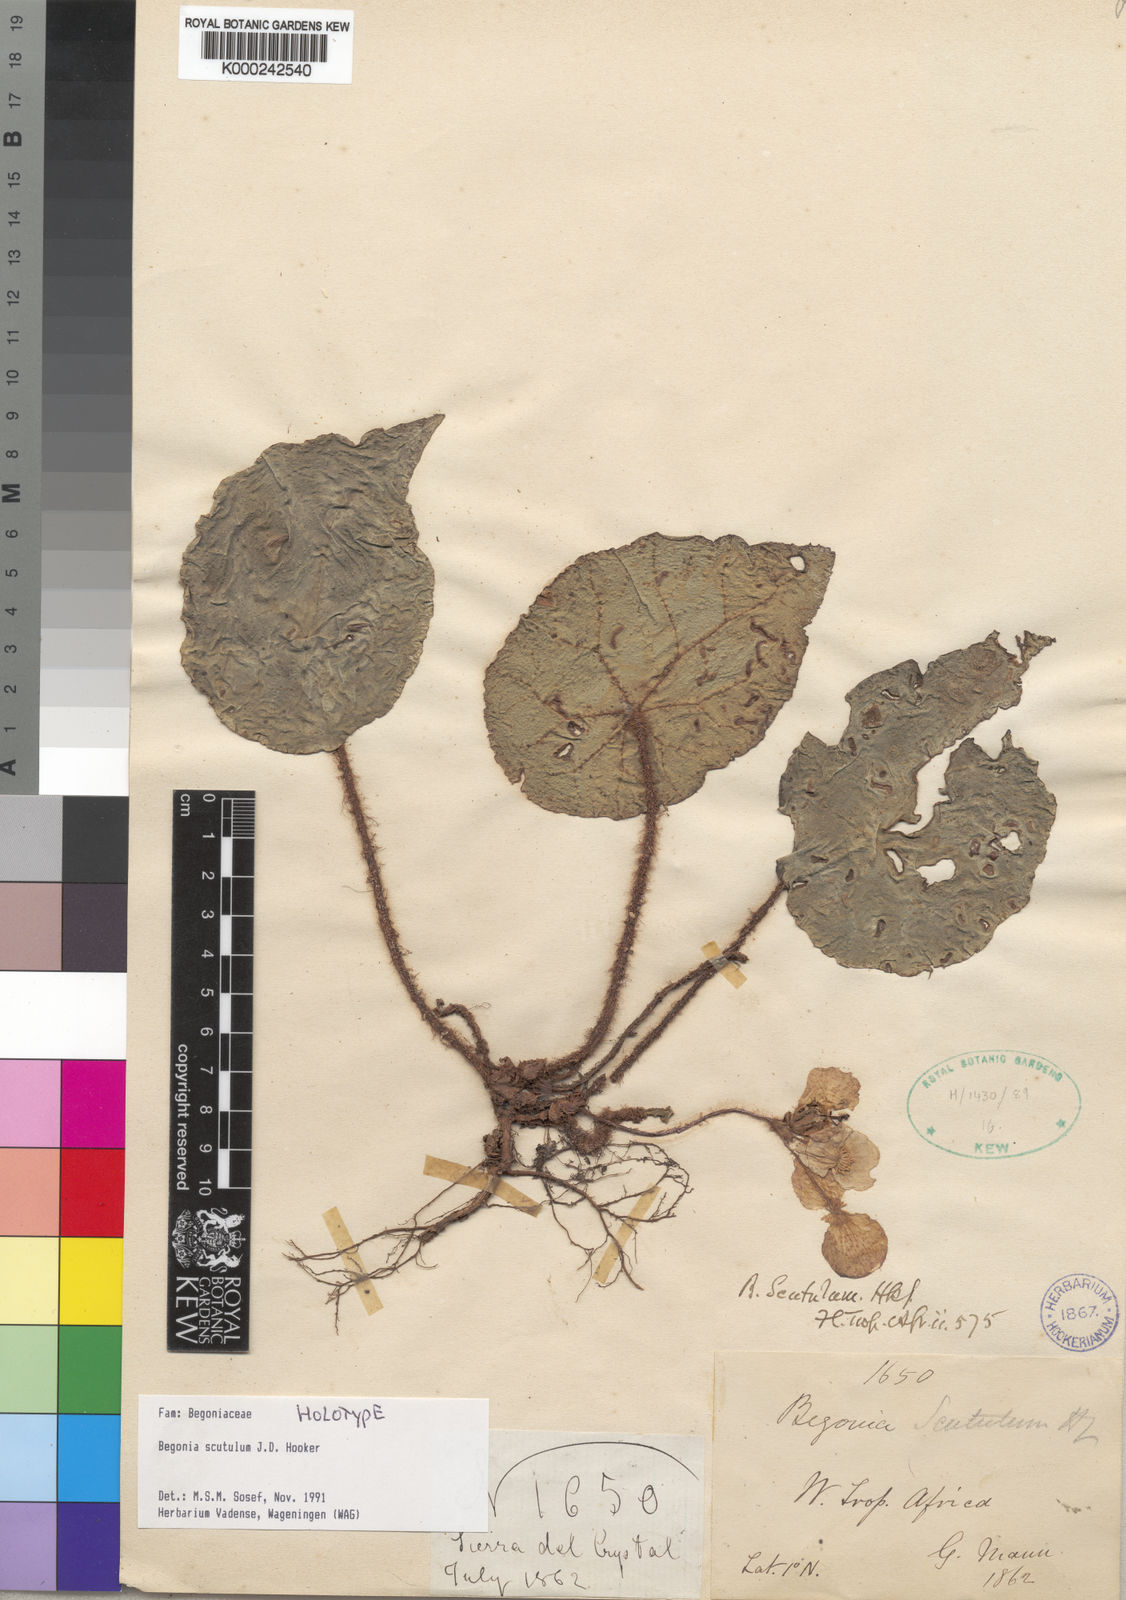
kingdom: Plantae
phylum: Tracheophyta
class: Magnoliopsida
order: Cucurbitales
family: Begoniaceae
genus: Begonia
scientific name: Begonia scutulum
